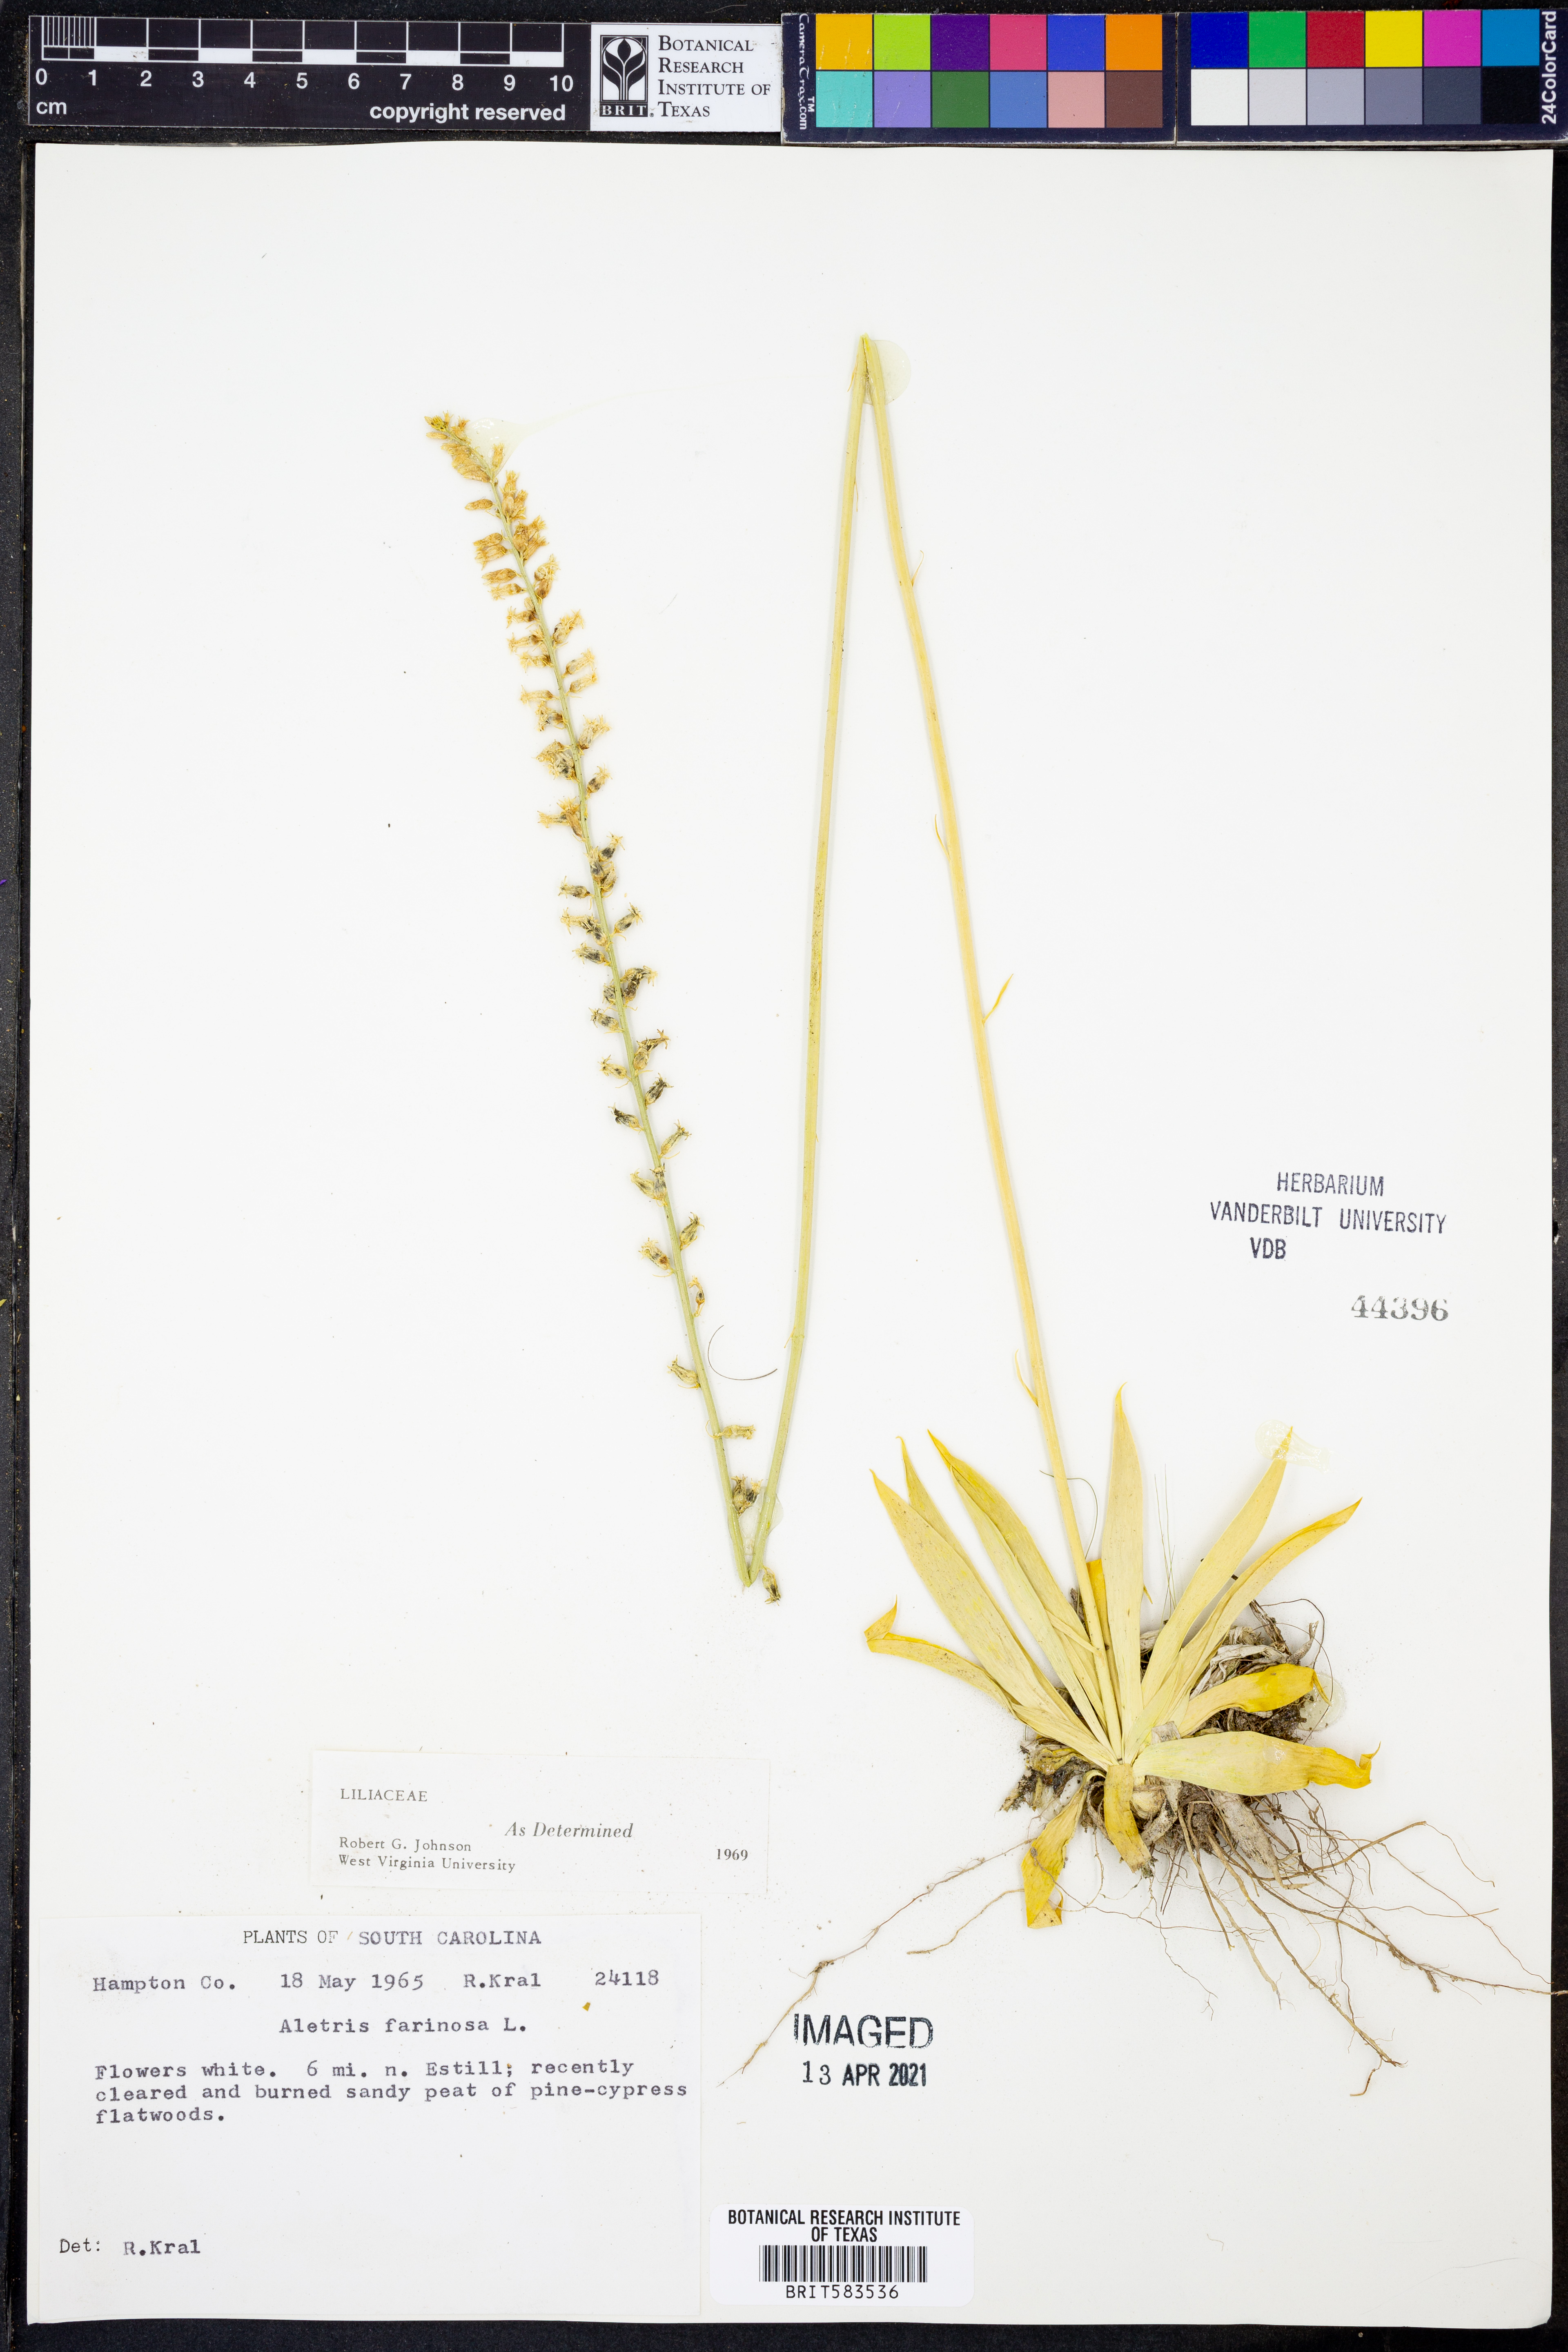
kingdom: Plantae
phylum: Tracheophyta
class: Liliopsida
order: Dioscoreales
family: Nartheciaceae
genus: Aletris
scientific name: Aletris farinosa
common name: Colicroot
